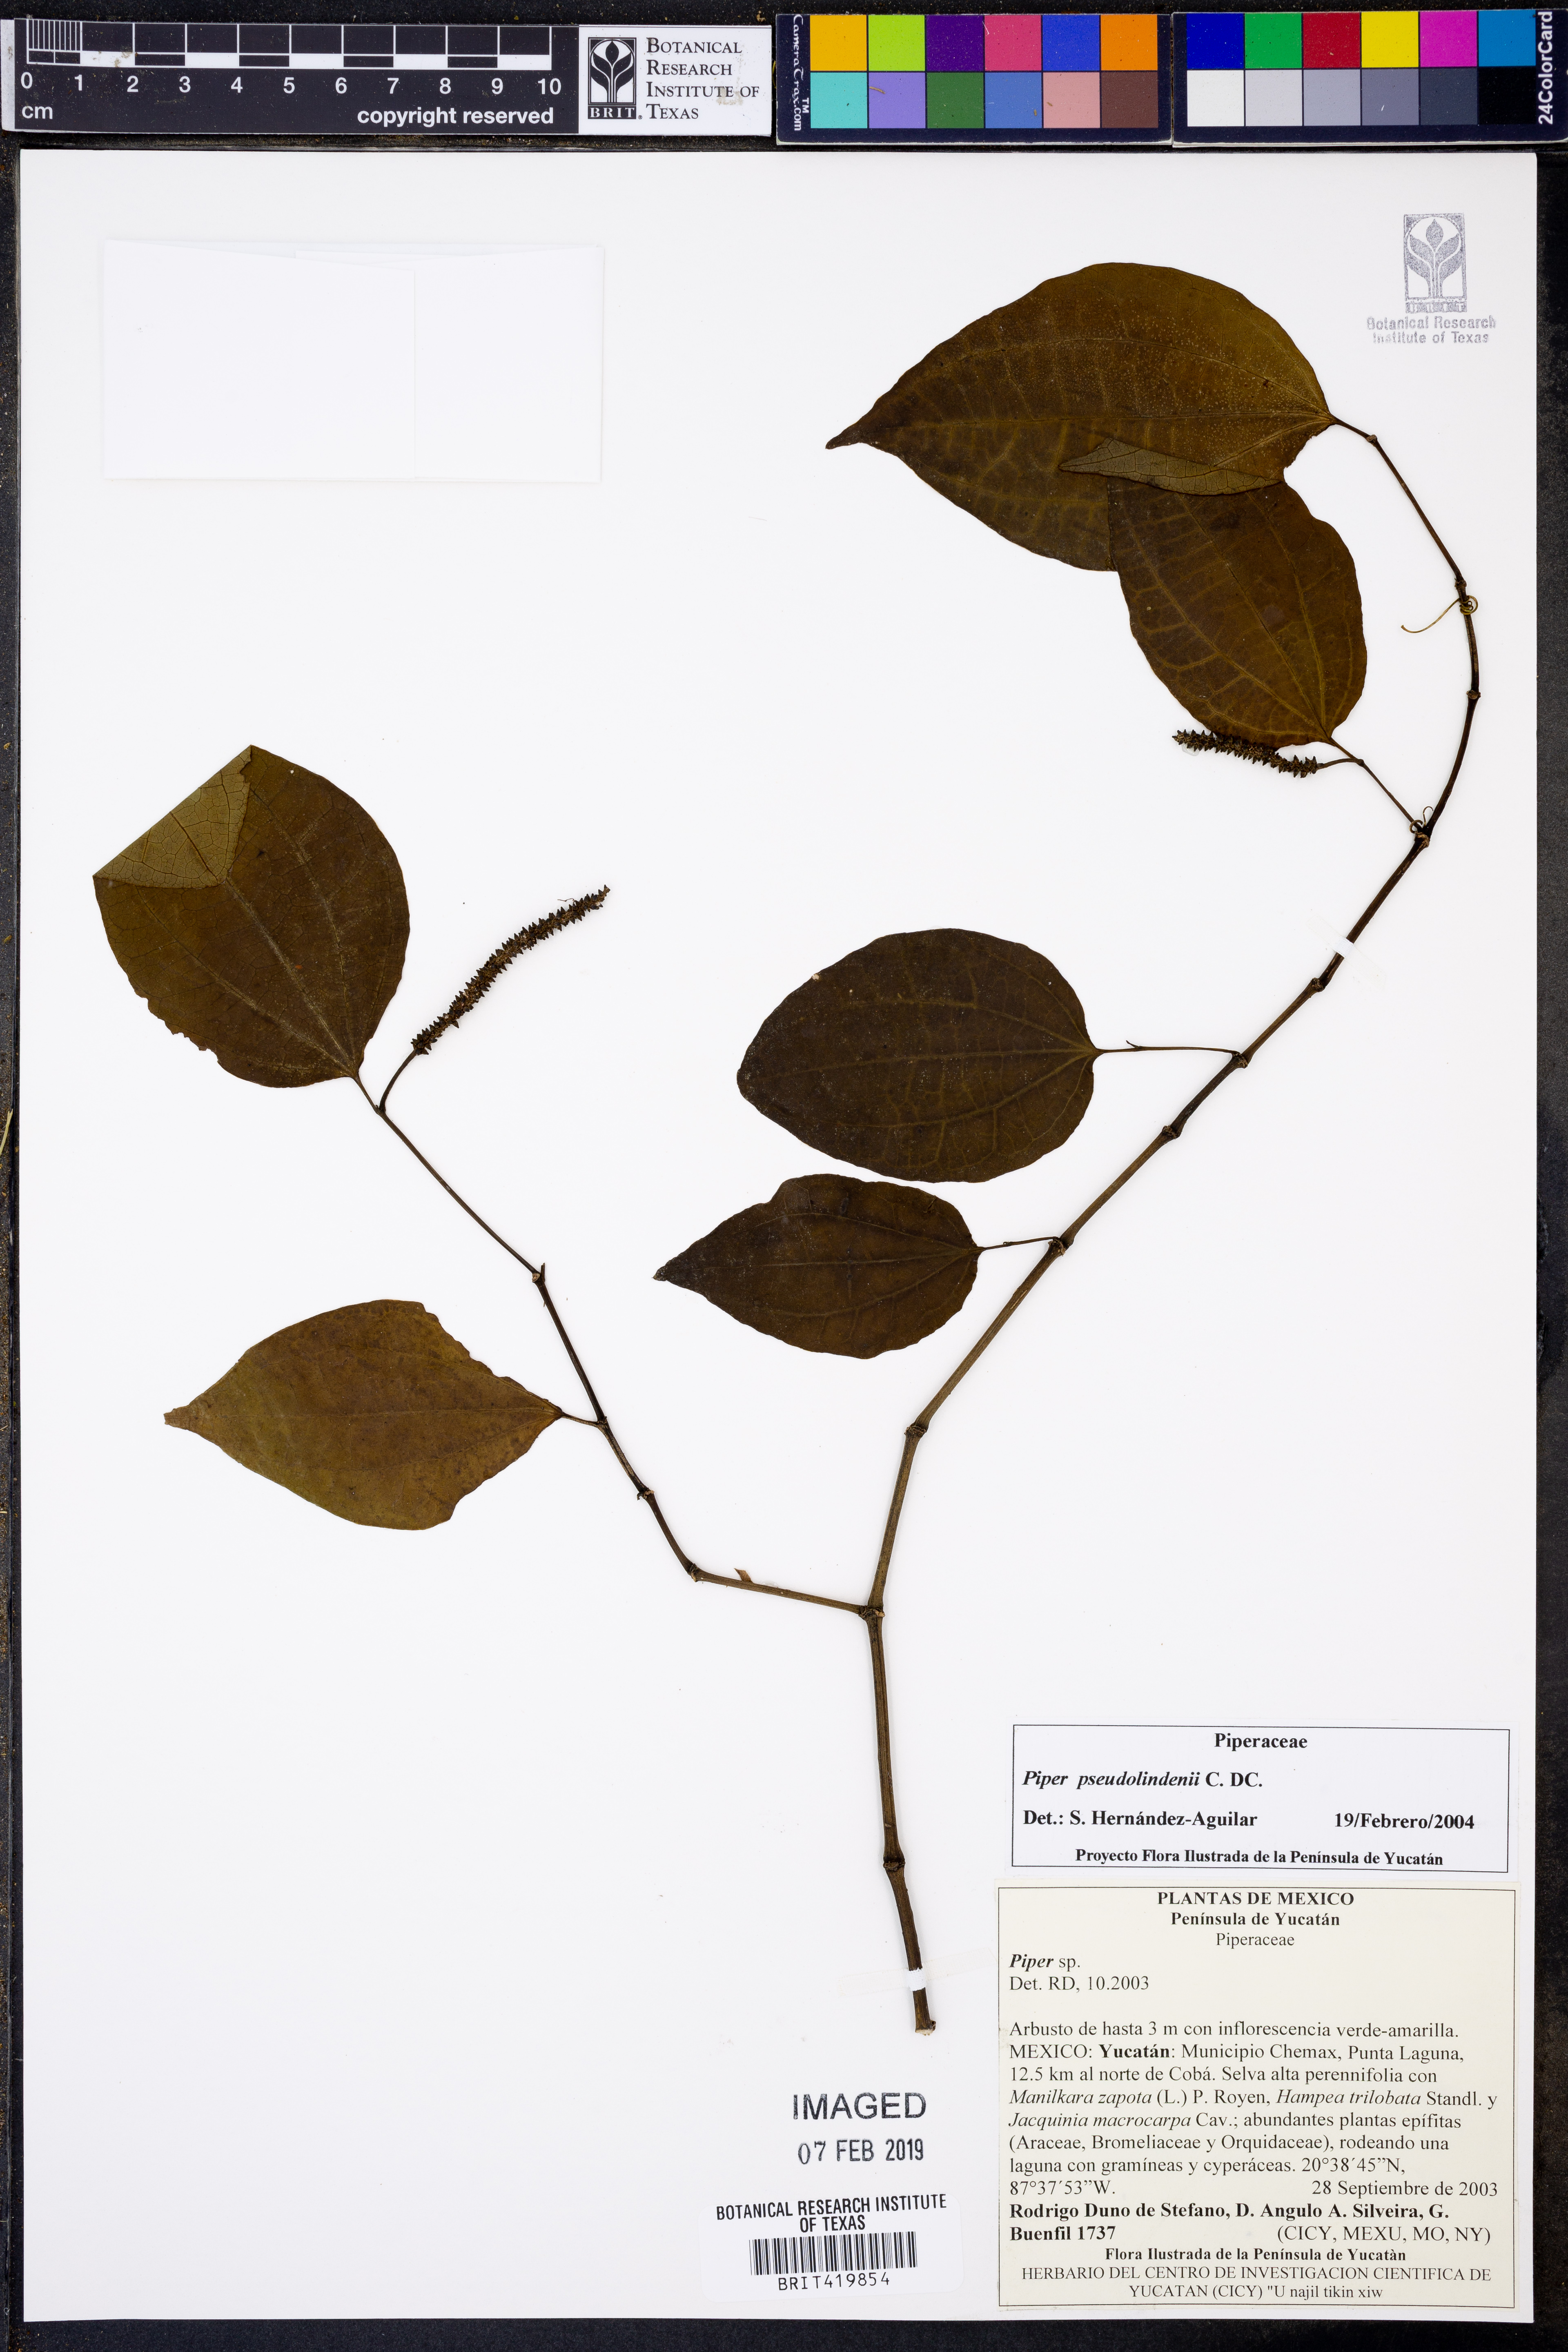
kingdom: Plantae
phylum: Tracheophyta
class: Magnoliopsida
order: Piperales
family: Piperaceae
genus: Piper
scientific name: Piper pseudolindenii
